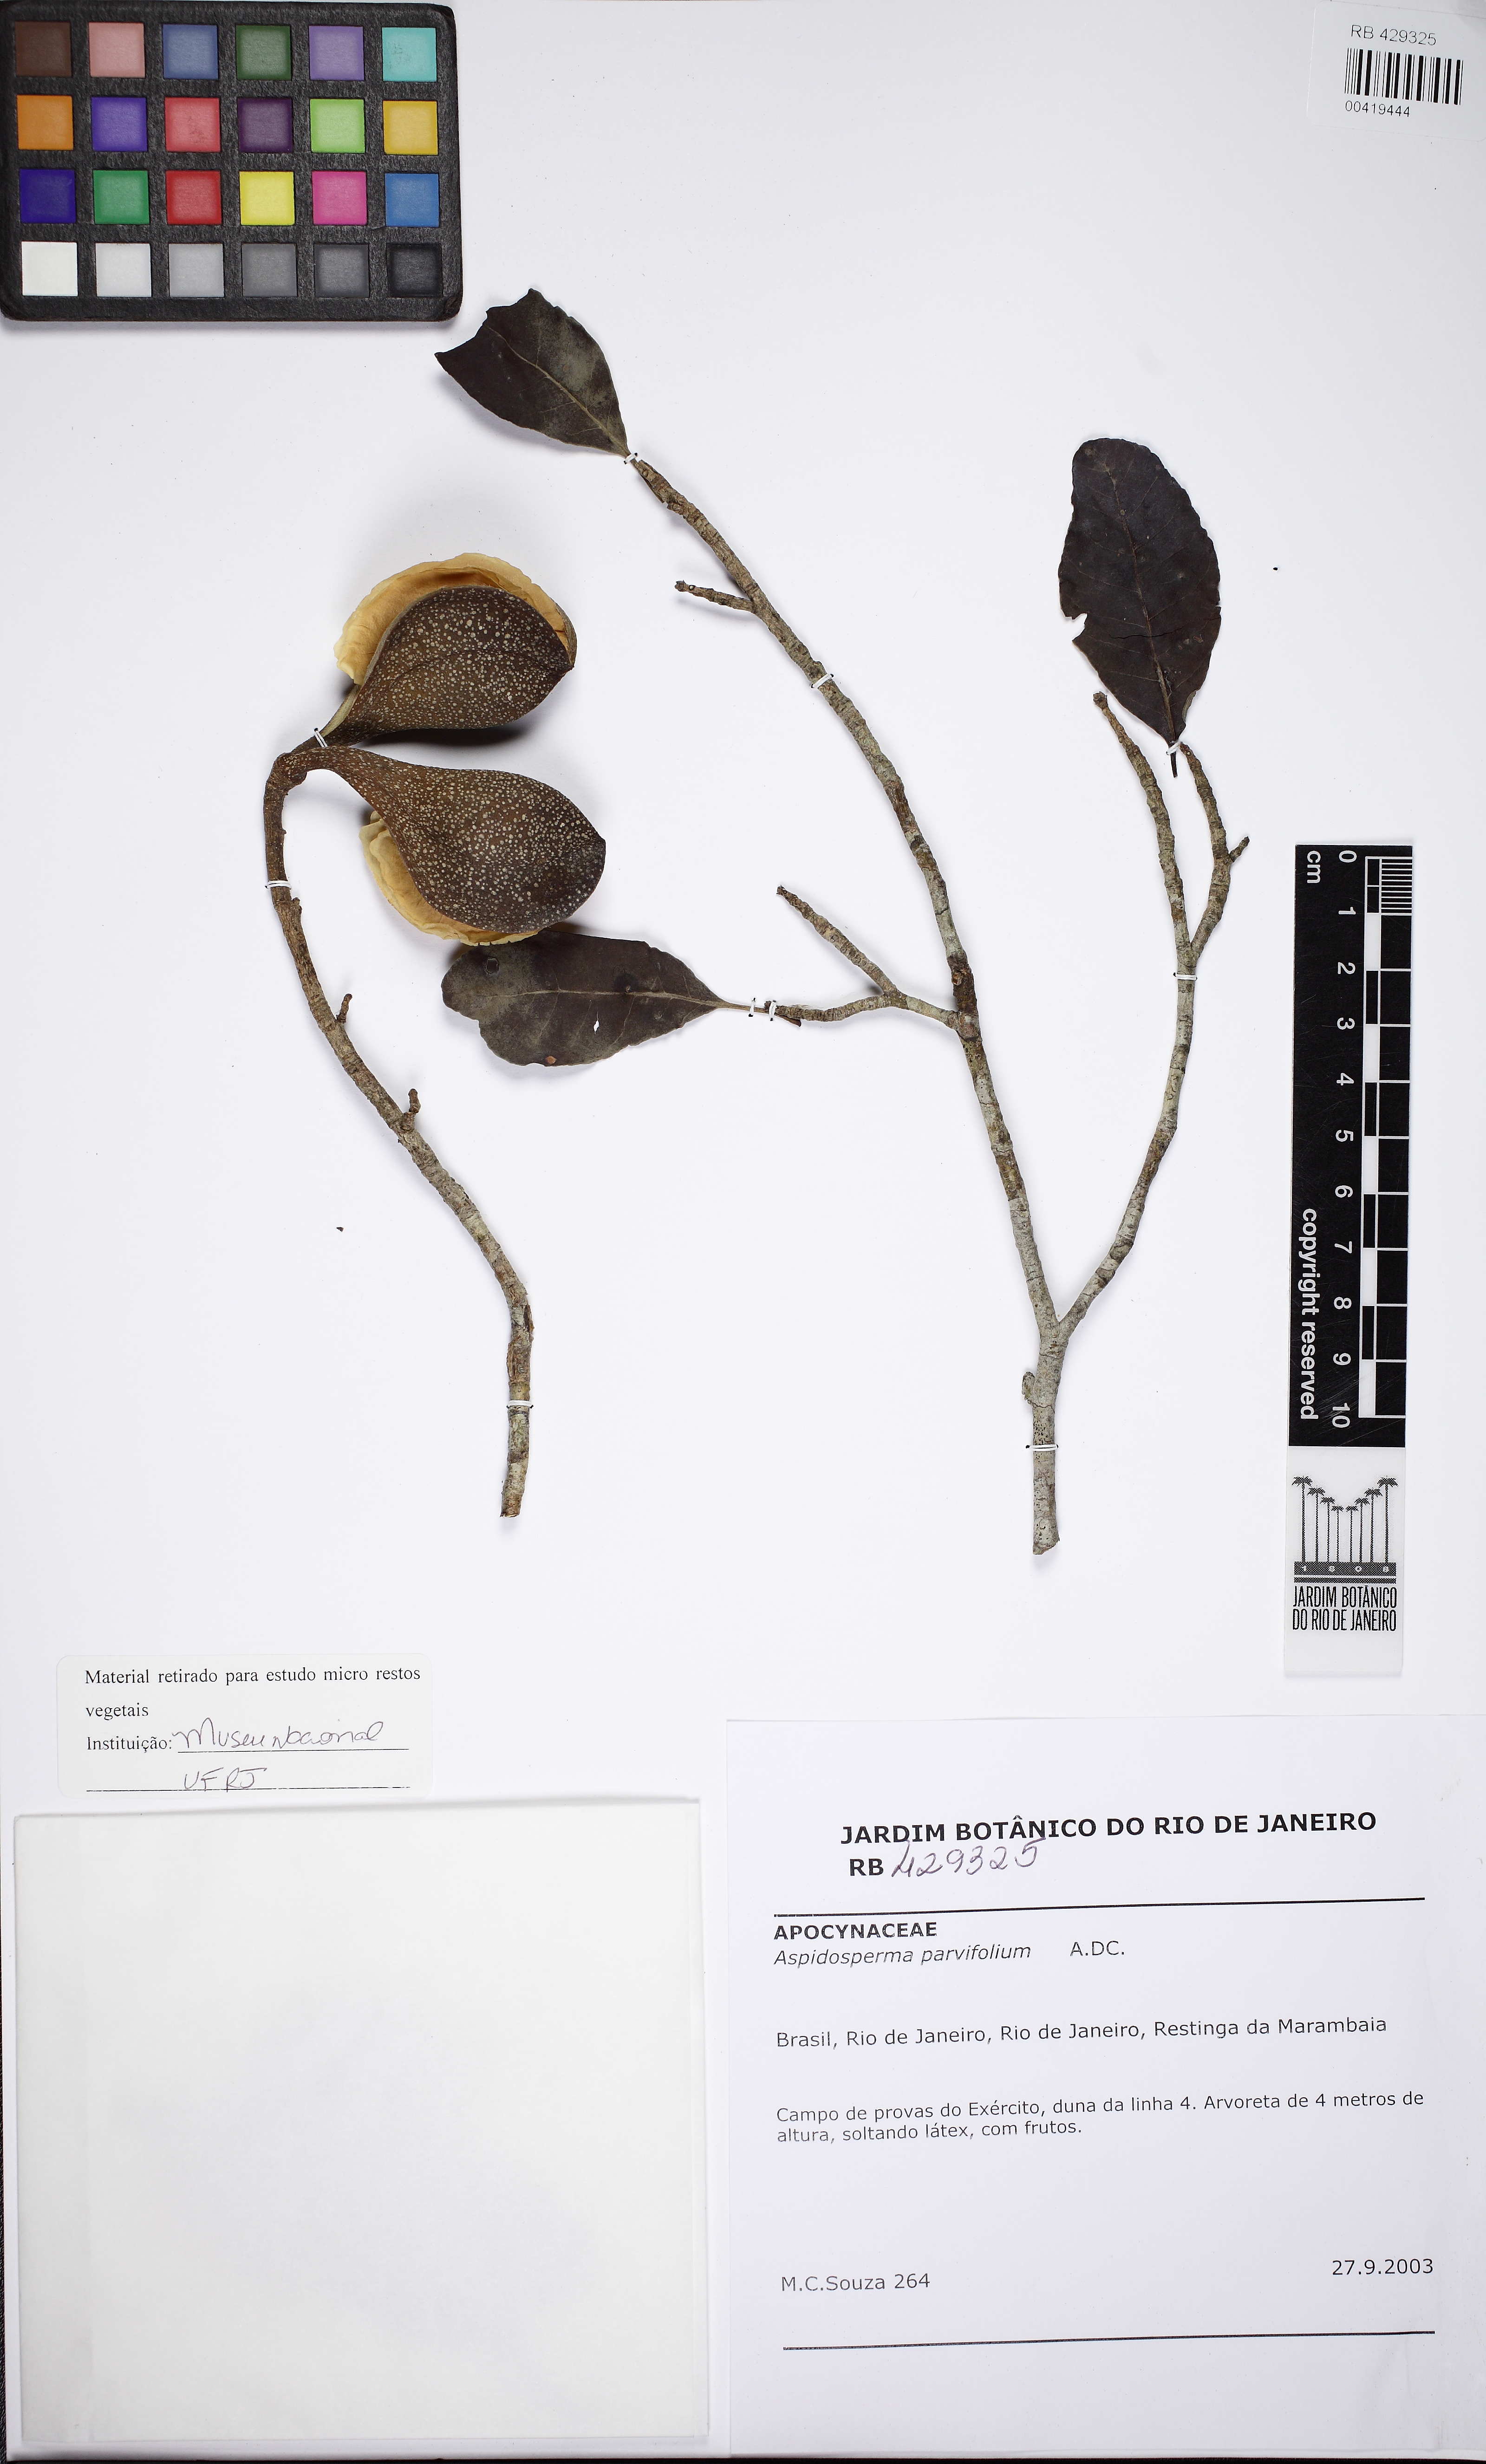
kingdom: Plantae
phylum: Tracheophyta
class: Magnoliopsida
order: Gentianales
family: Apocynaceae
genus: Aspidosperma
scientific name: Aspidosperma pyricollum
